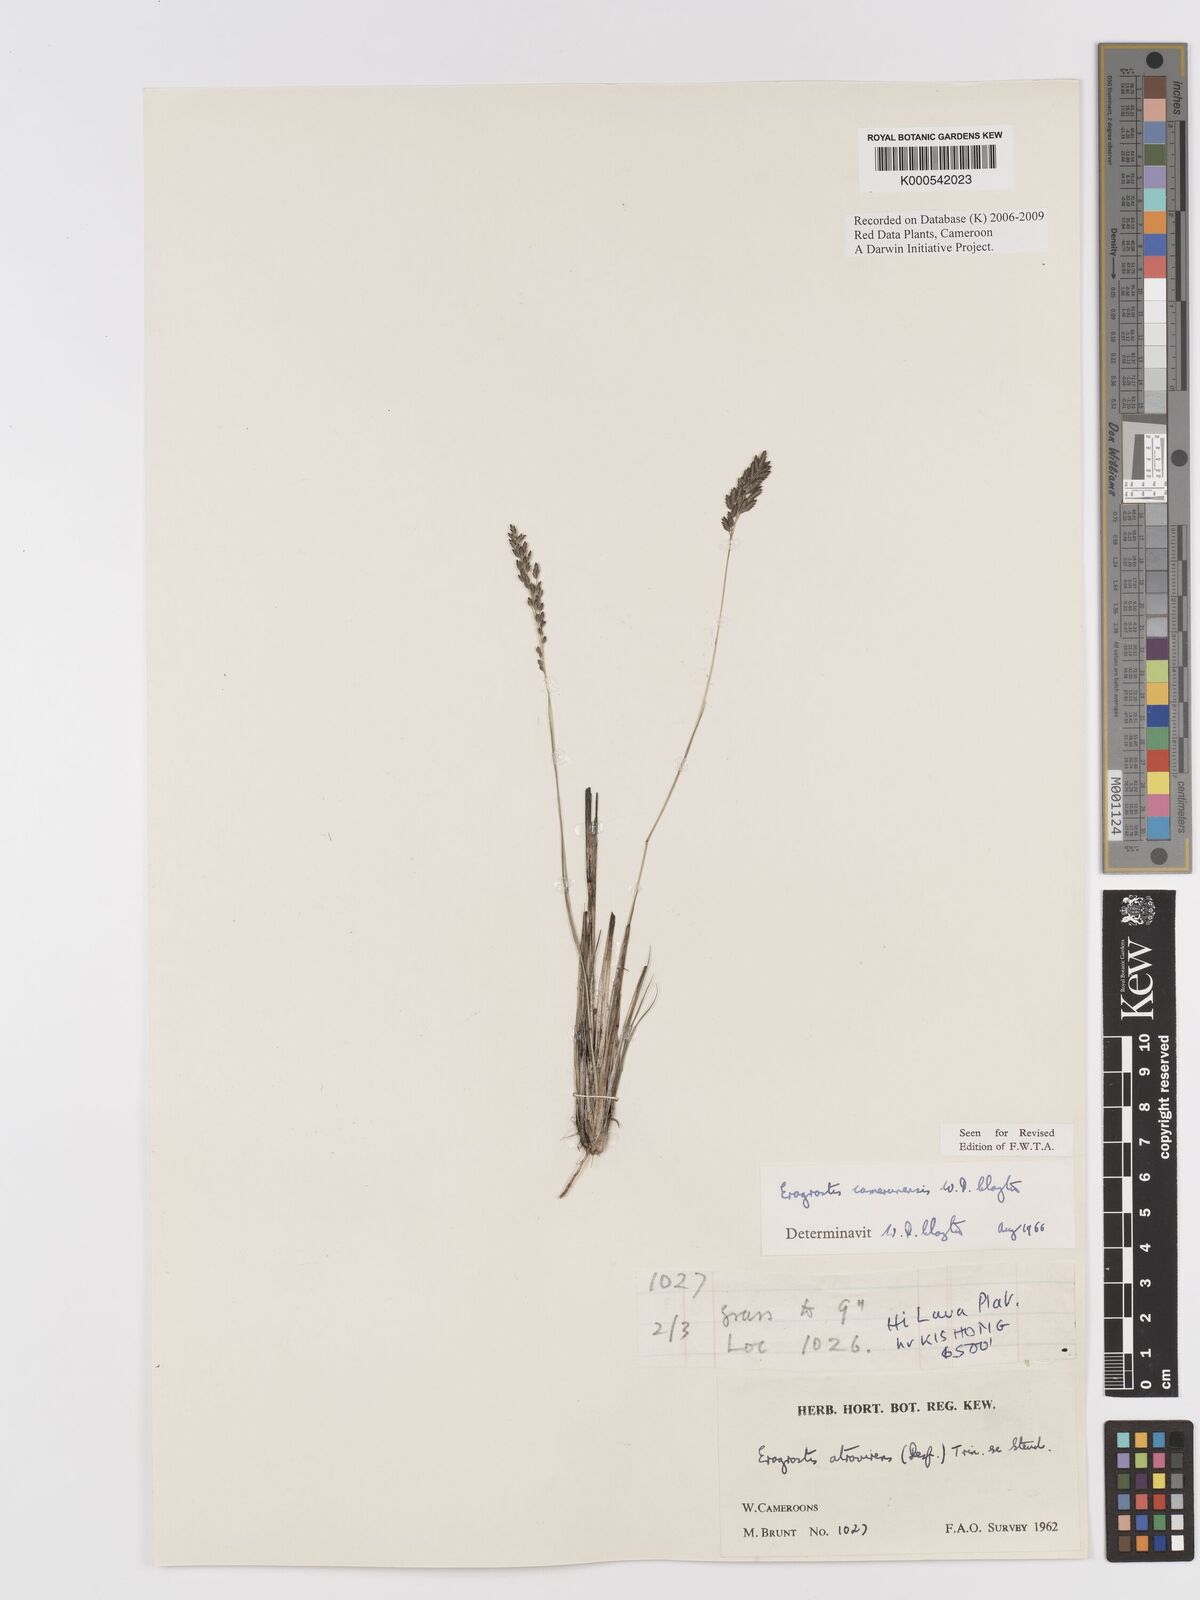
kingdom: Plantae
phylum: Tracheophyta
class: Liliopsida
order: Poales
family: Poaceae
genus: Eragrostis
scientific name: Eragrostis camerunensis
